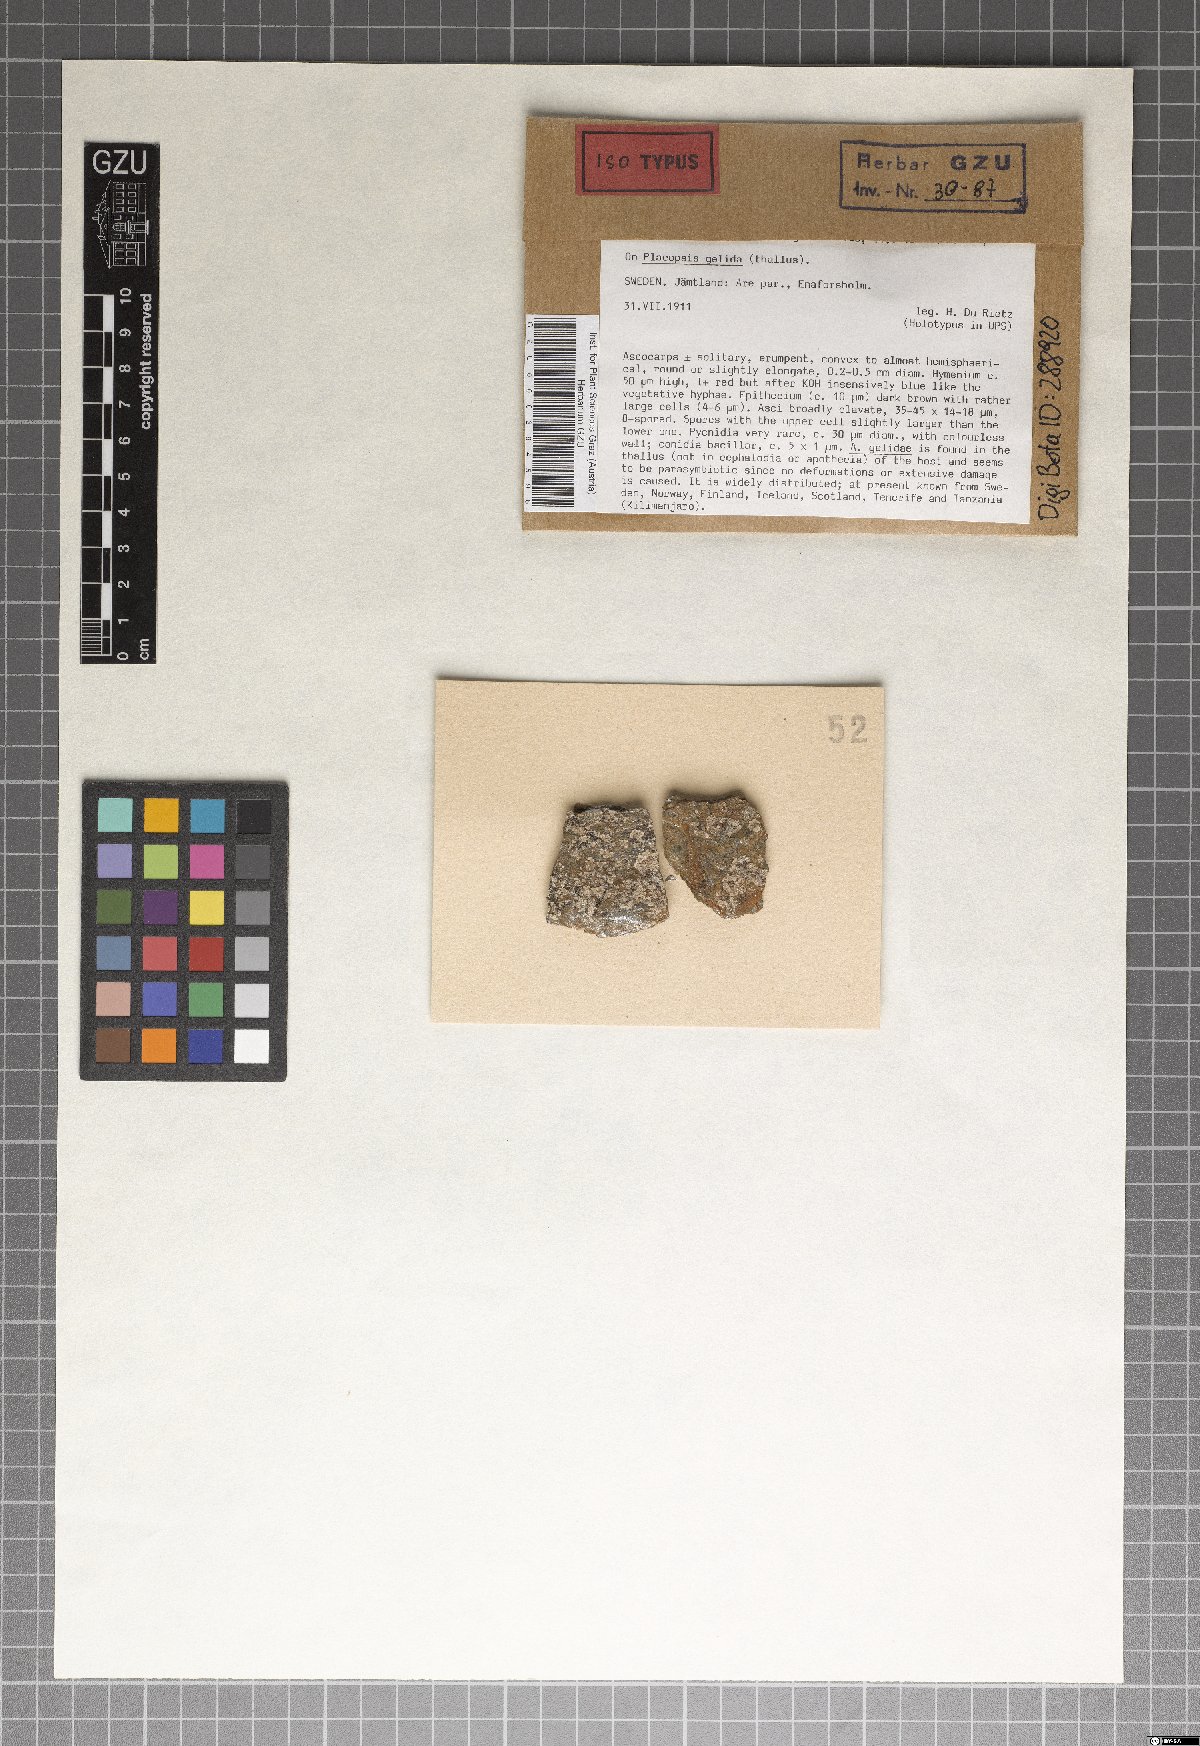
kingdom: Fungi
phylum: Ascomycota
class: Arthoniomycetes
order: Arthoniales
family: Arthoniaceae
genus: Arthonia
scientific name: Arthonia gelidae
